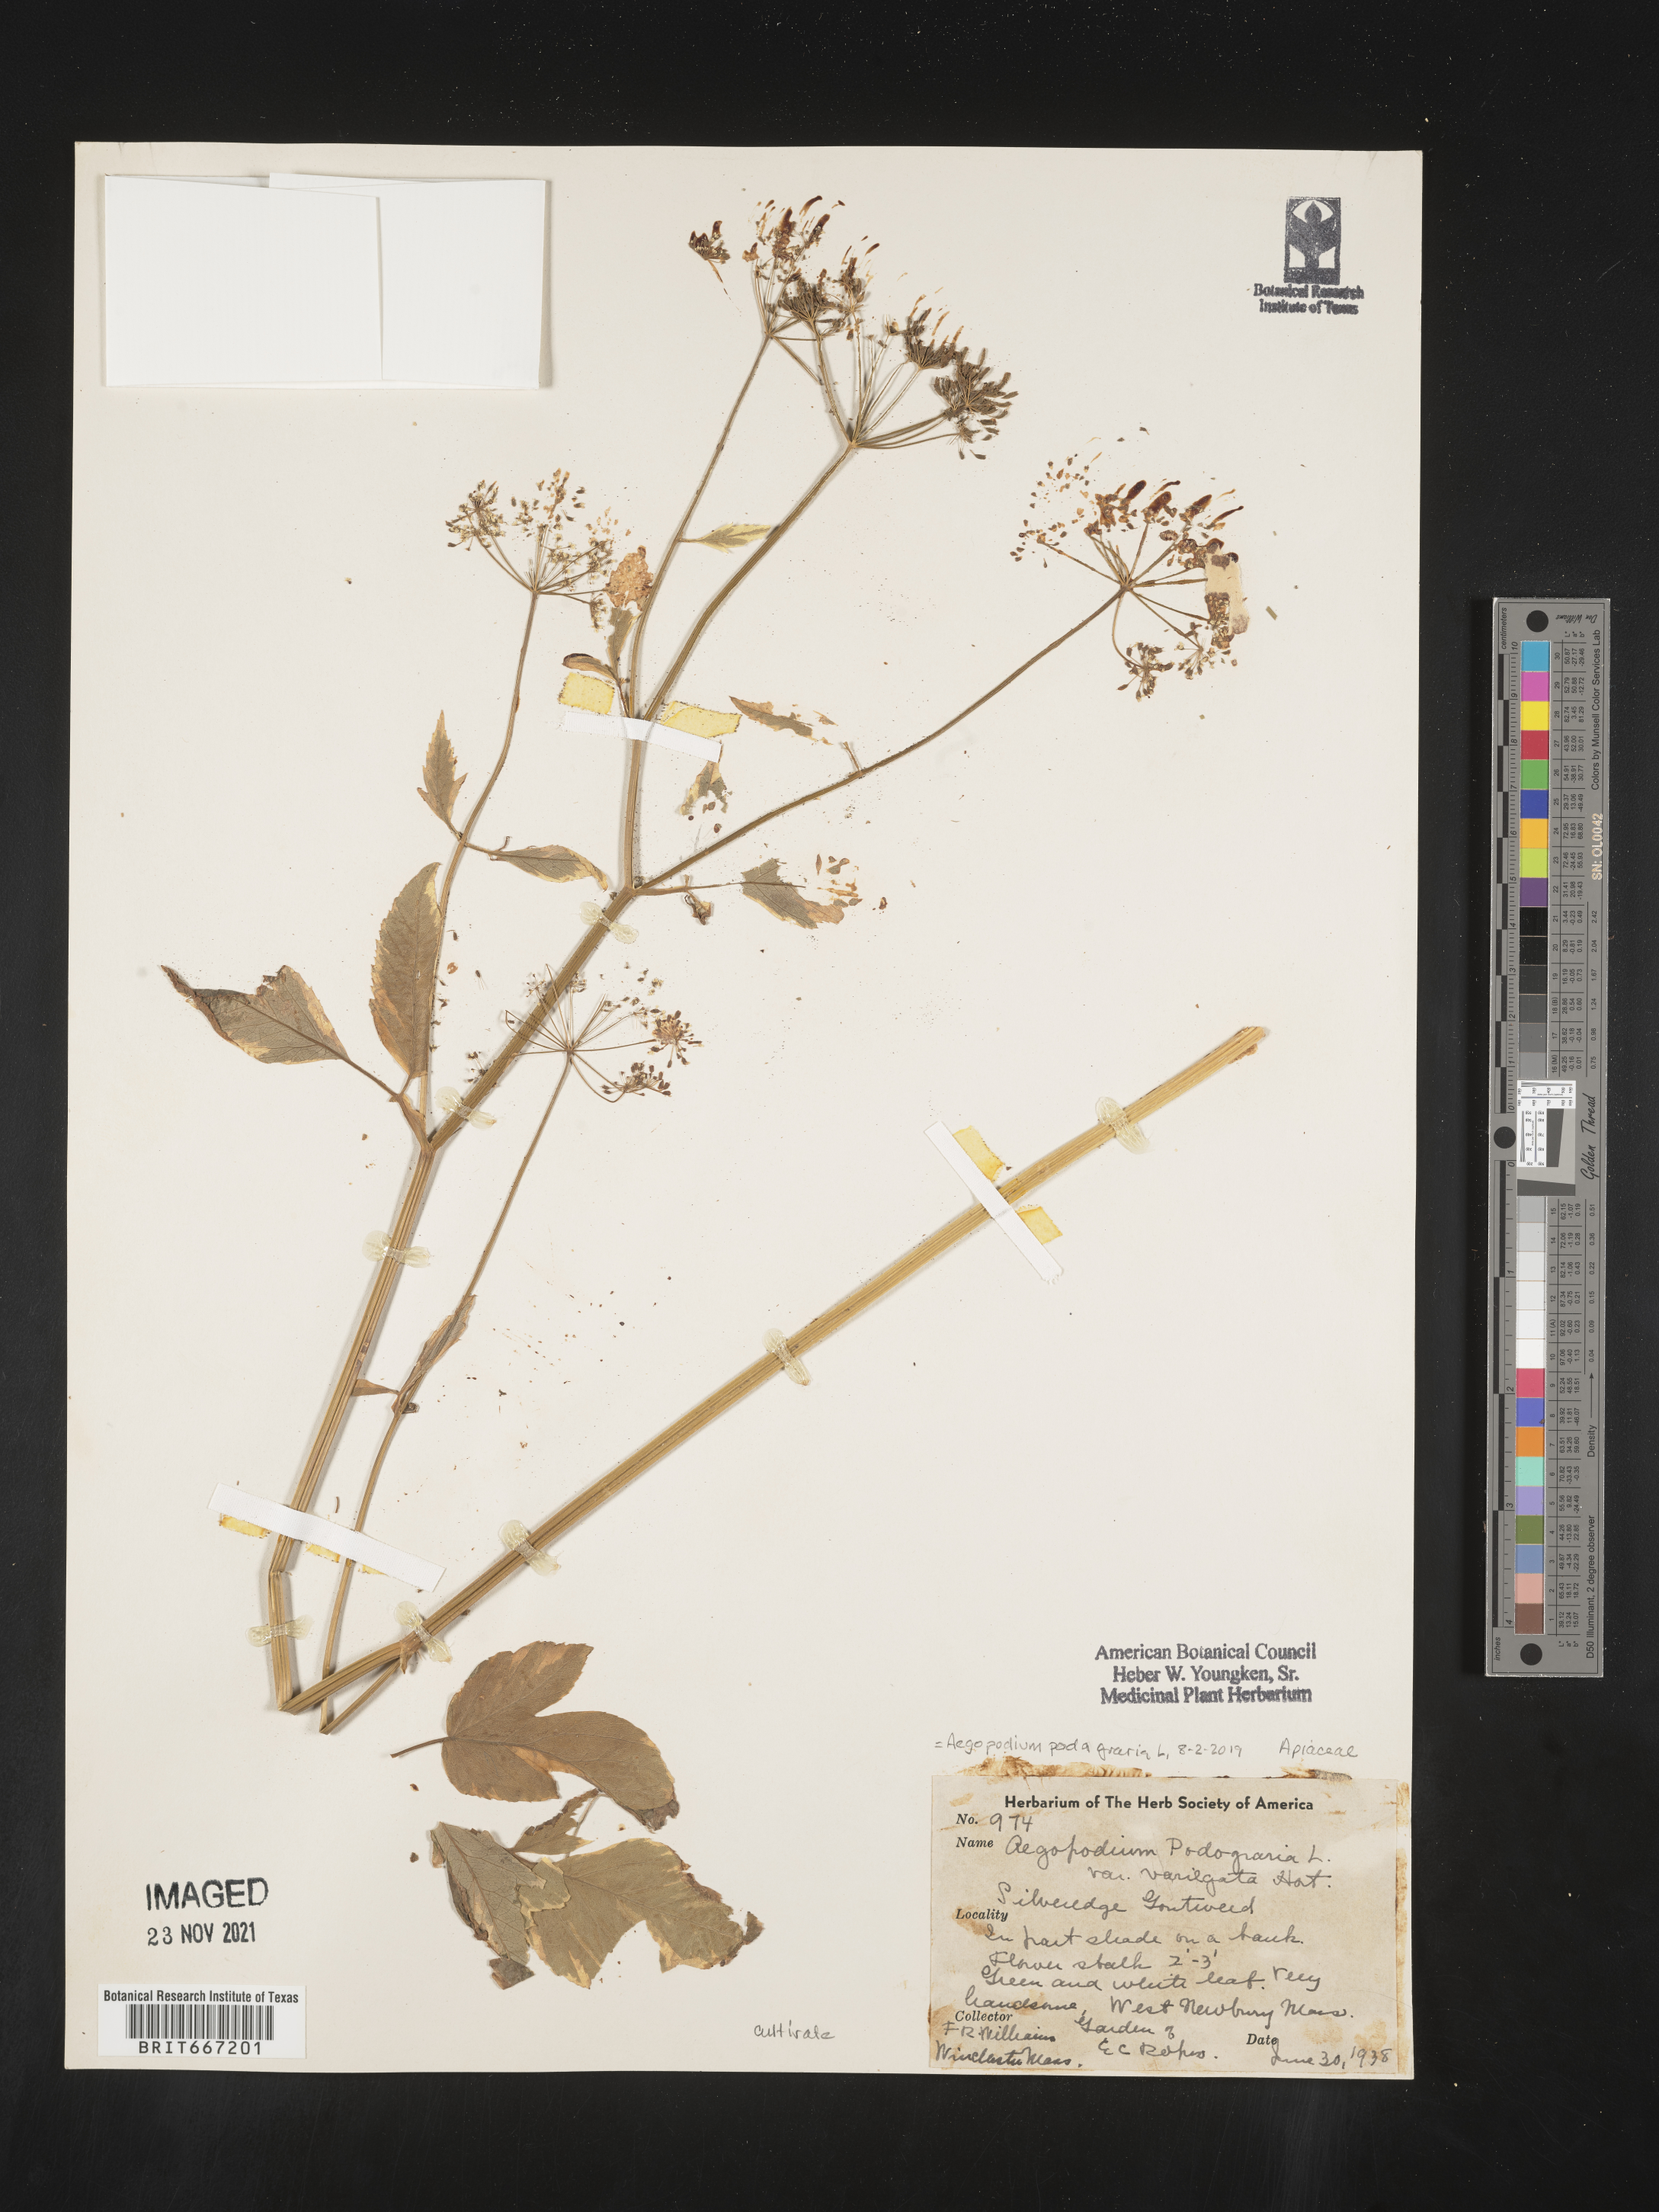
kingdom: Plantae
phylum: Tracheophyta
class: Magnoliopsida
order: Apiales
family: Apiaceae
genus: Aegopodium
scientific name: Aegopodium
